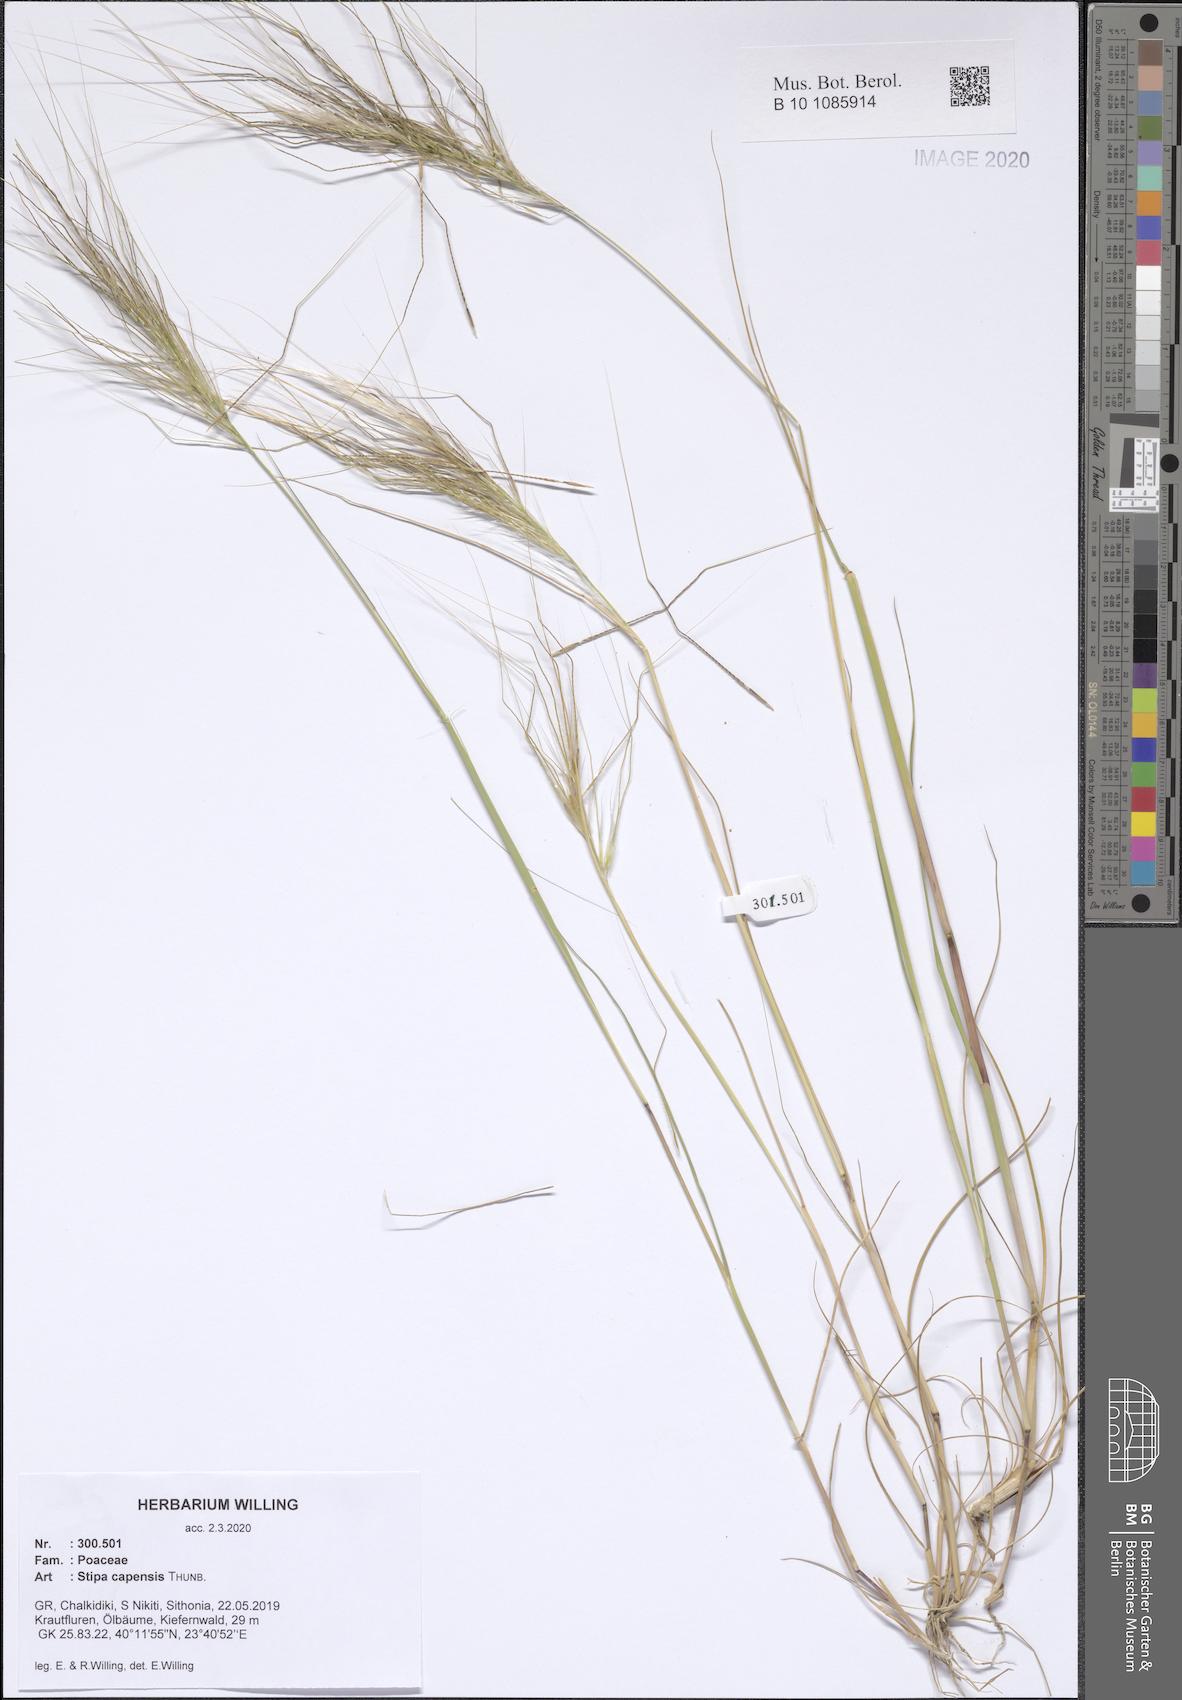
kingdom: Plantae
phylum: Tracheophyta
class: Liliopsida
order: Poales
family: Poaceae
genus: Stipellula
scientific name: Stipellula capensis
